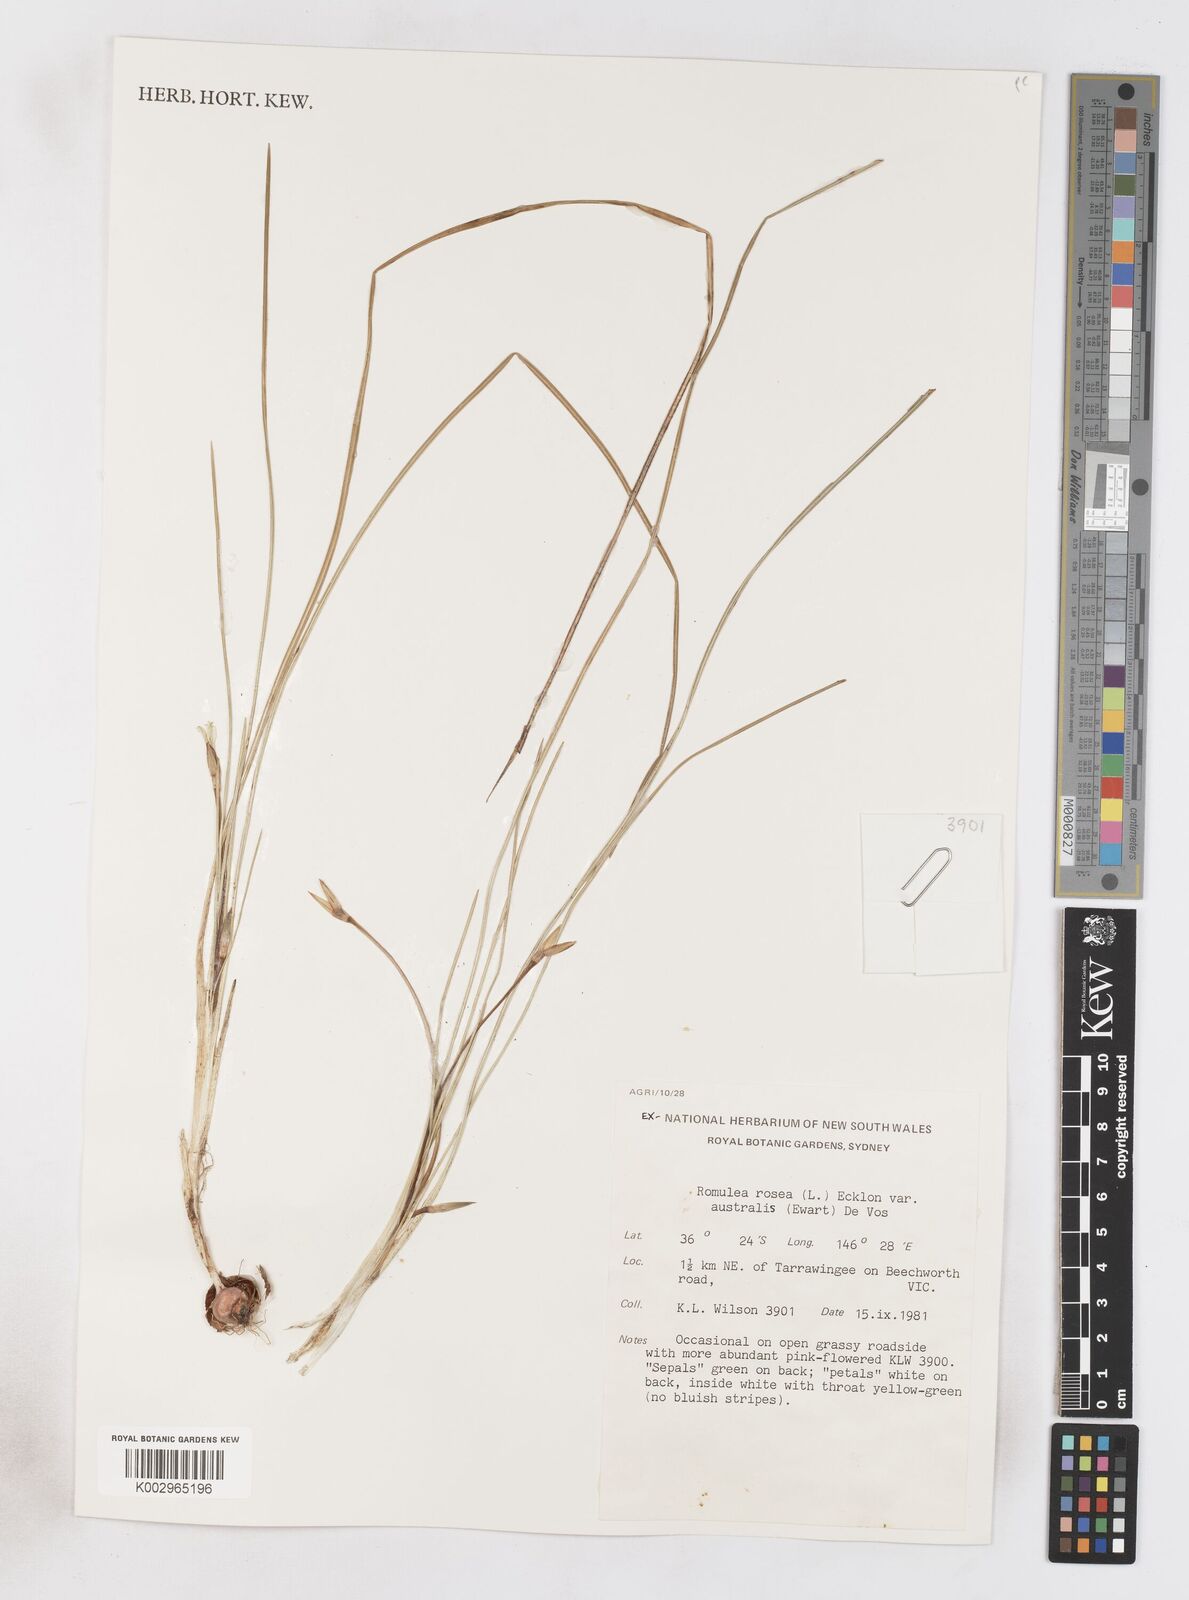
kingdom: Plantae
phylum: Tracheophyta
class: Liliopsida
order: Asparagales
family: Iridaceae
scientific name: Iridaceae
